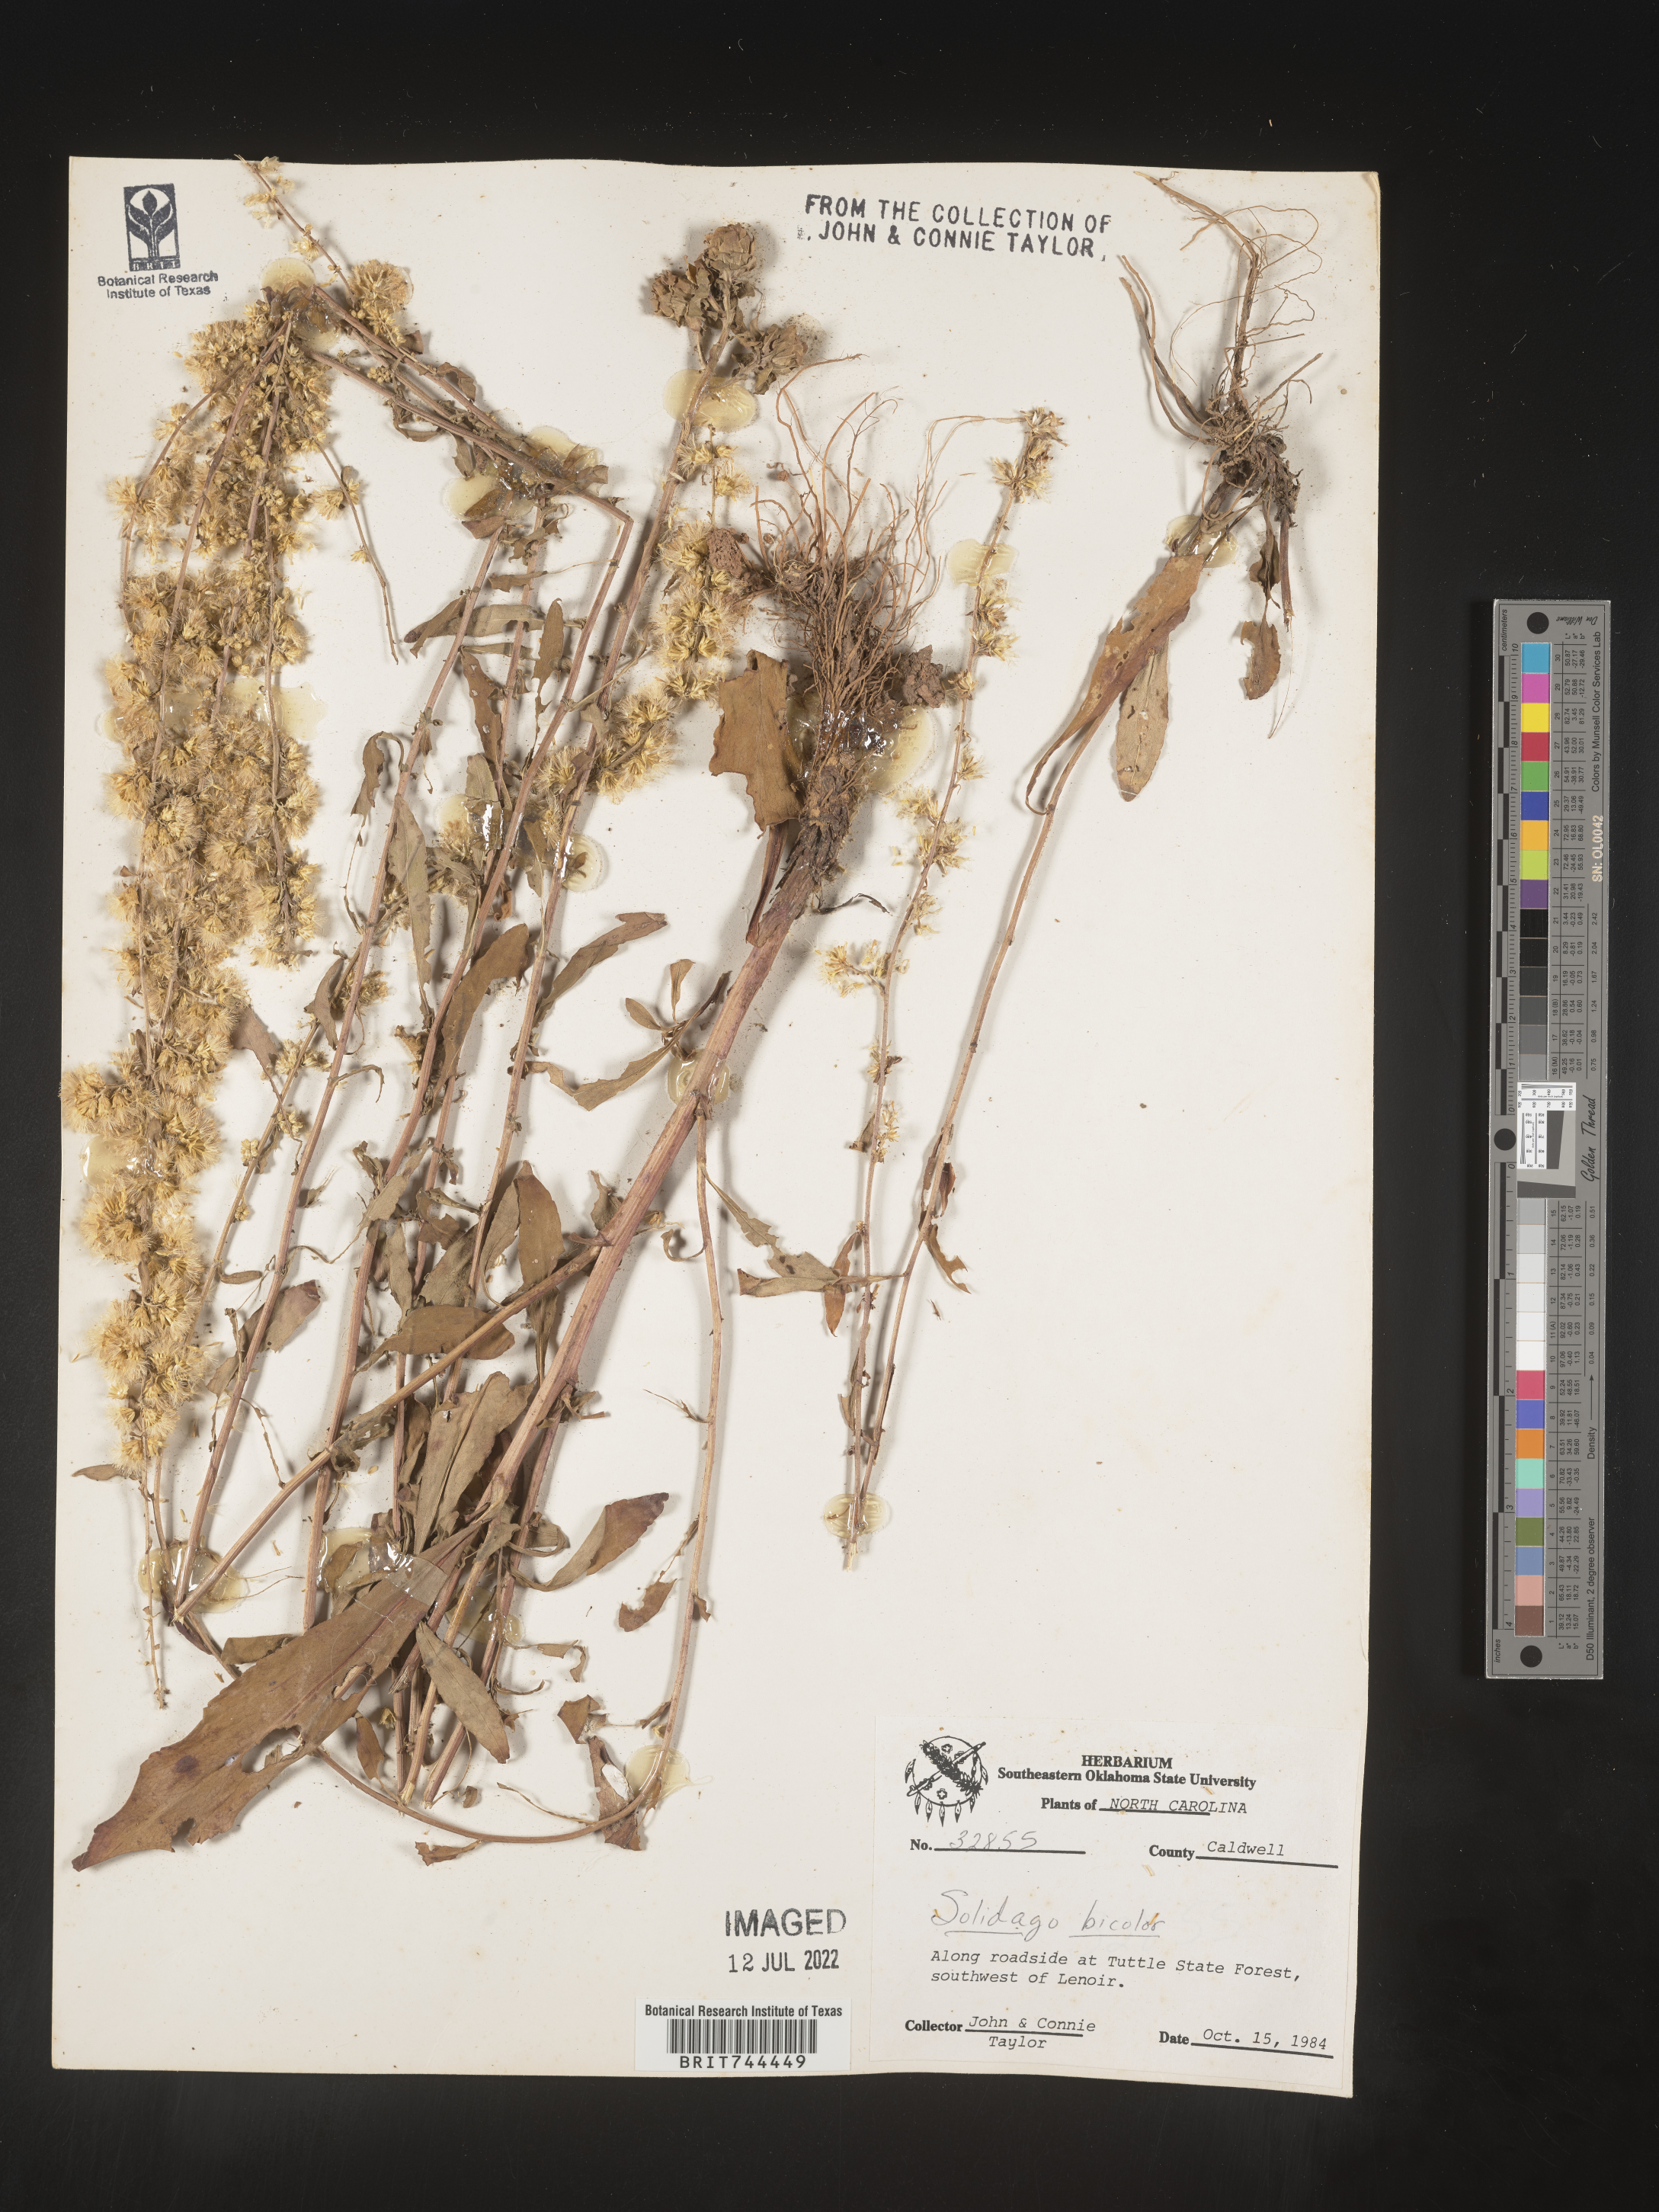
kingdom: Plantae
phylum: Tracheophyta
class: Magnoliopsida
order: Asterales
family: Asteraceae
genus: Solidago
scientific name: Solidago bicolor
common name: Silverrod
